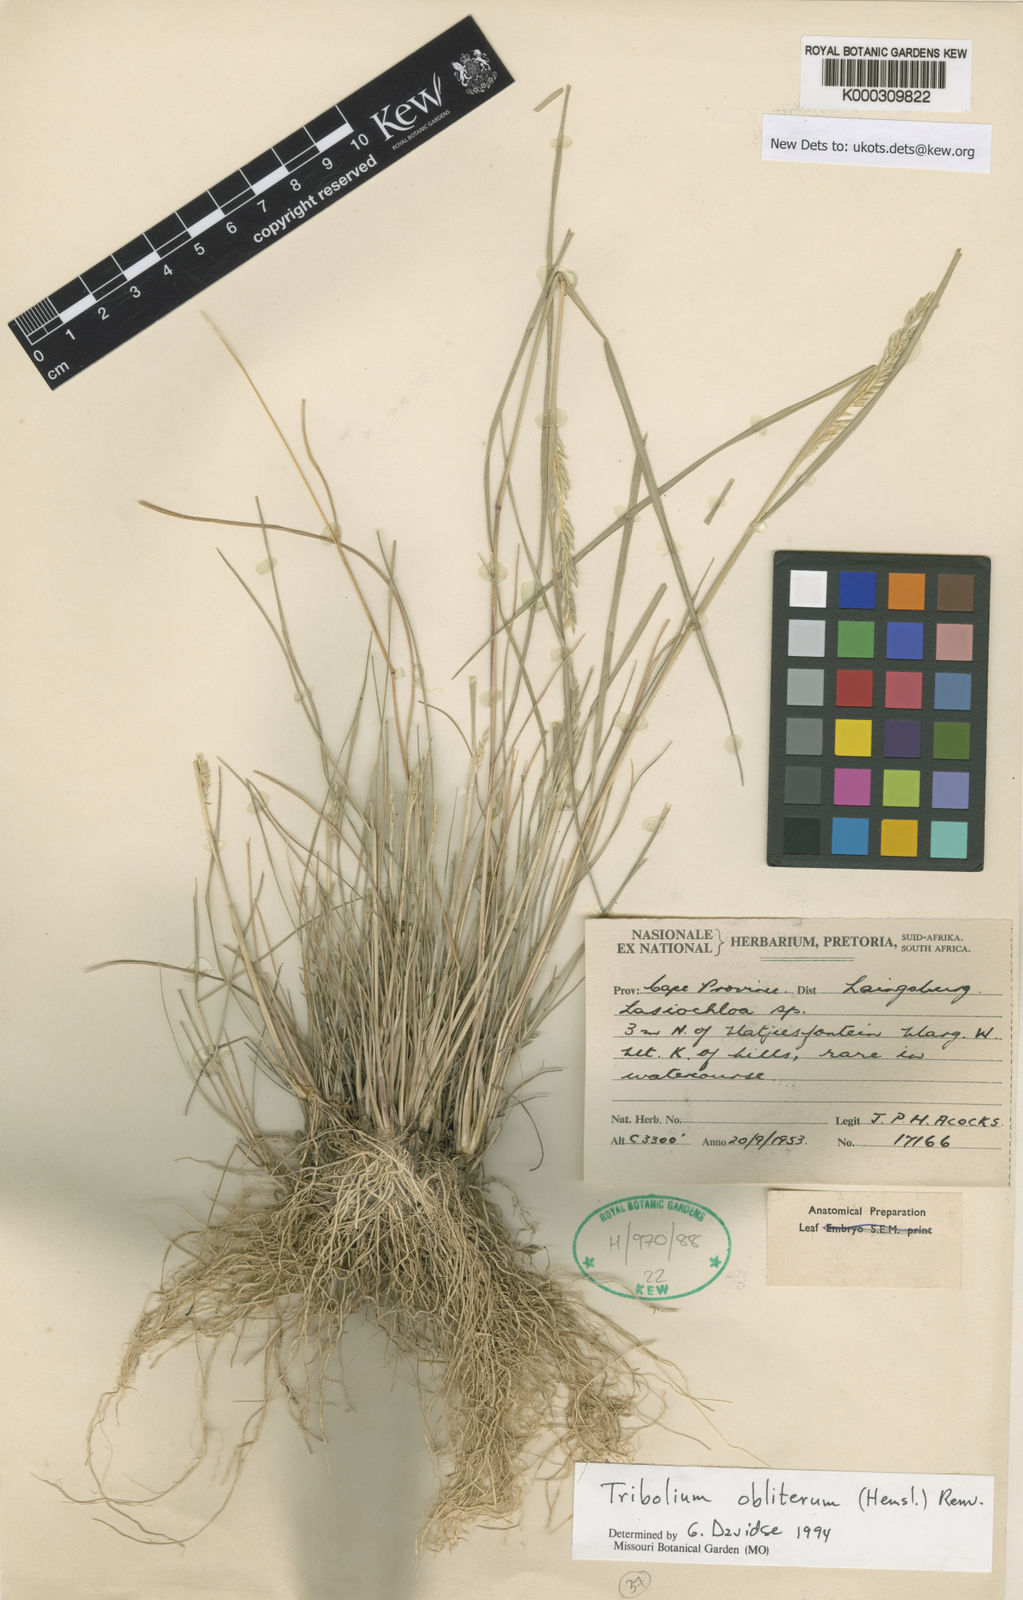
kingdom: Plantae
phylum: Tracheophyta
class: Liliopsida
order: Poales
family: Poaceae
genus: Tribolium
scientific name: Tribolium obliterum
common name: Capetown grass
